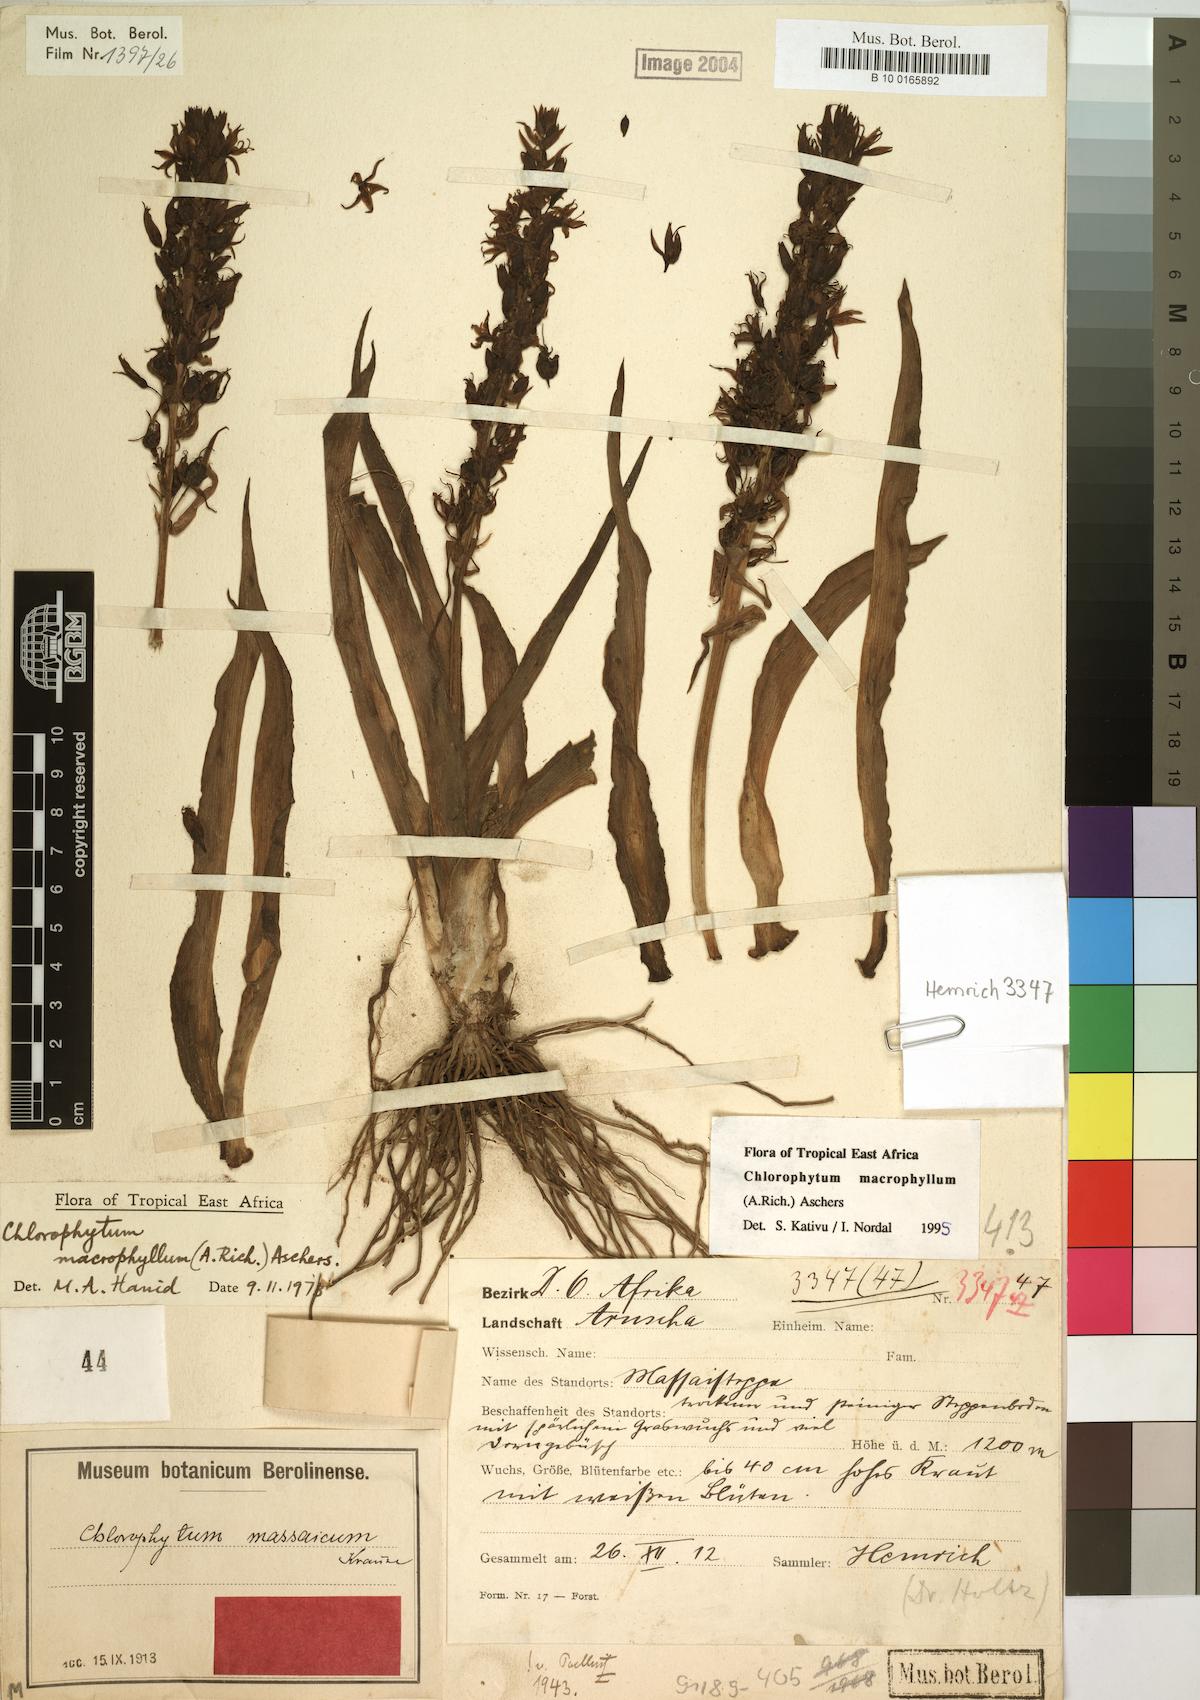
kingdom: Plantae
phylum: Tracheophyta
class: Liliopsida
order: Asparagales
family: Asparagaceae
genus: Chlorophytum
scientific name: Chlorophytum macrophyllum
